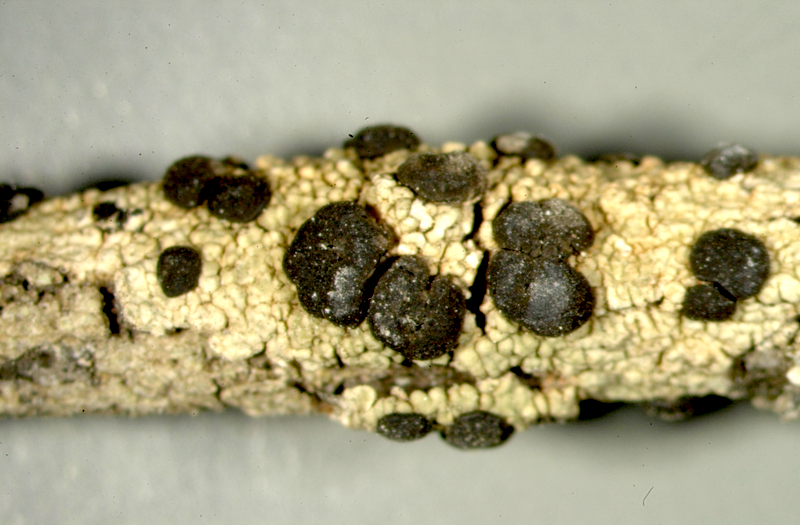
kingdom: Fungi
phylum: Ascomycota
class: Lecanoromycetes
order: Lecanorales
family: Mycoblastaceae
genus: Tephromela
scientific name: Tephromela
